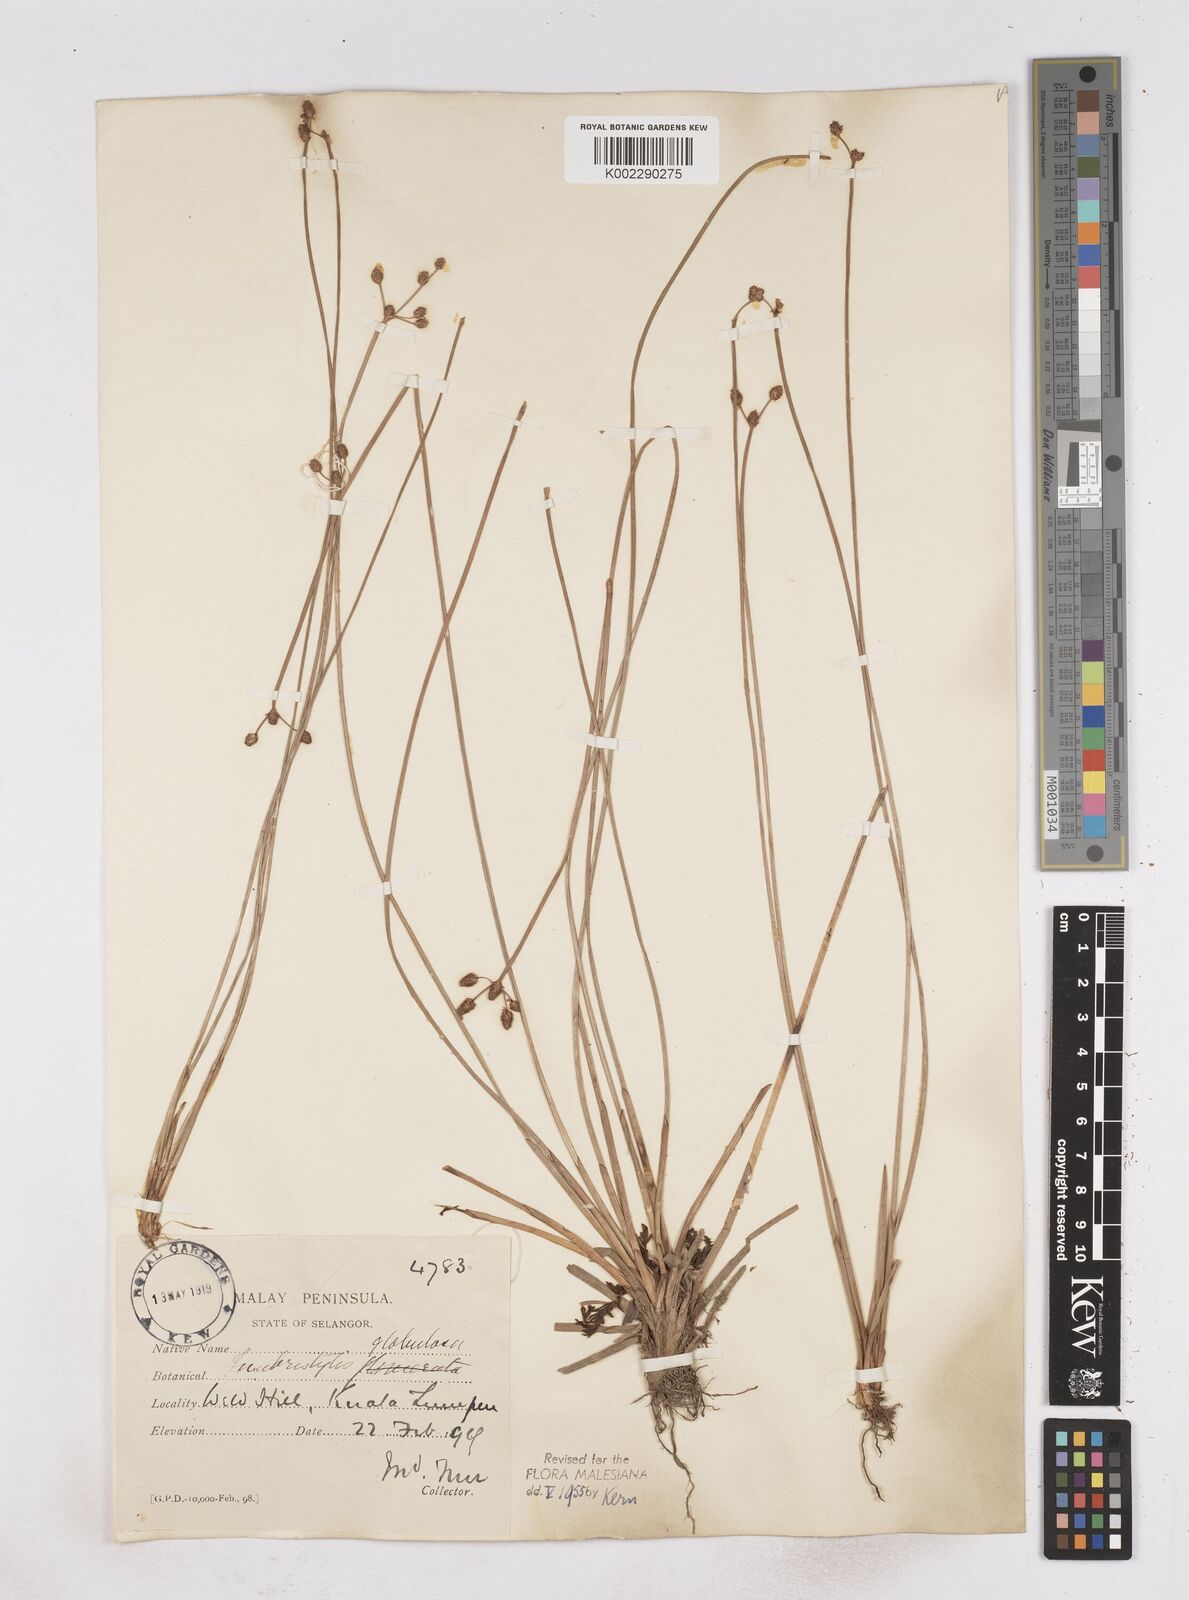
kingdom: Plantae
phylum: Tracheophyta
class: Liliopsida
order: Poales
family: Cyperaceae
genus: Fimbristylis
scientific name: Fimbristylis umbellaris
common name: Globular fimbristylis
